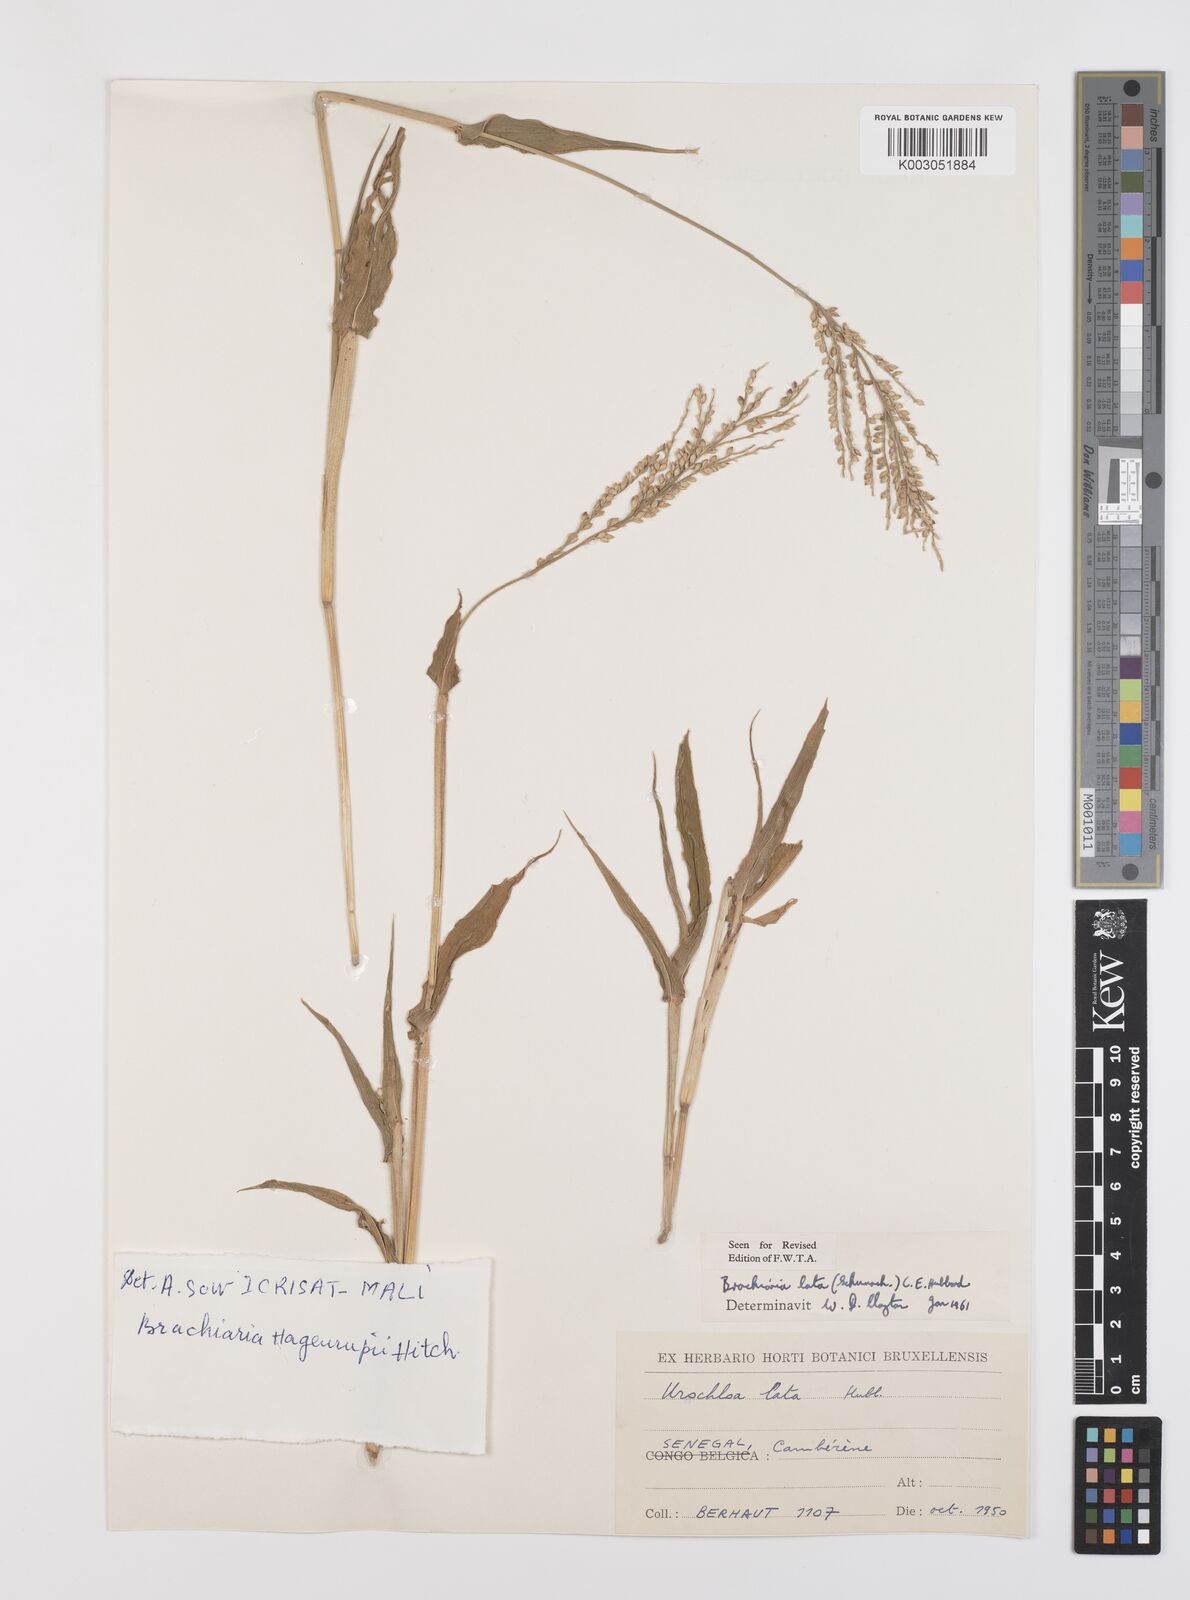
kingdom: Plantae
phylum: Tracheophyta
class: Liliopsida
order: Poales
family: Poaceae
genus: Urochloa
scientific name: Urochloa lata
